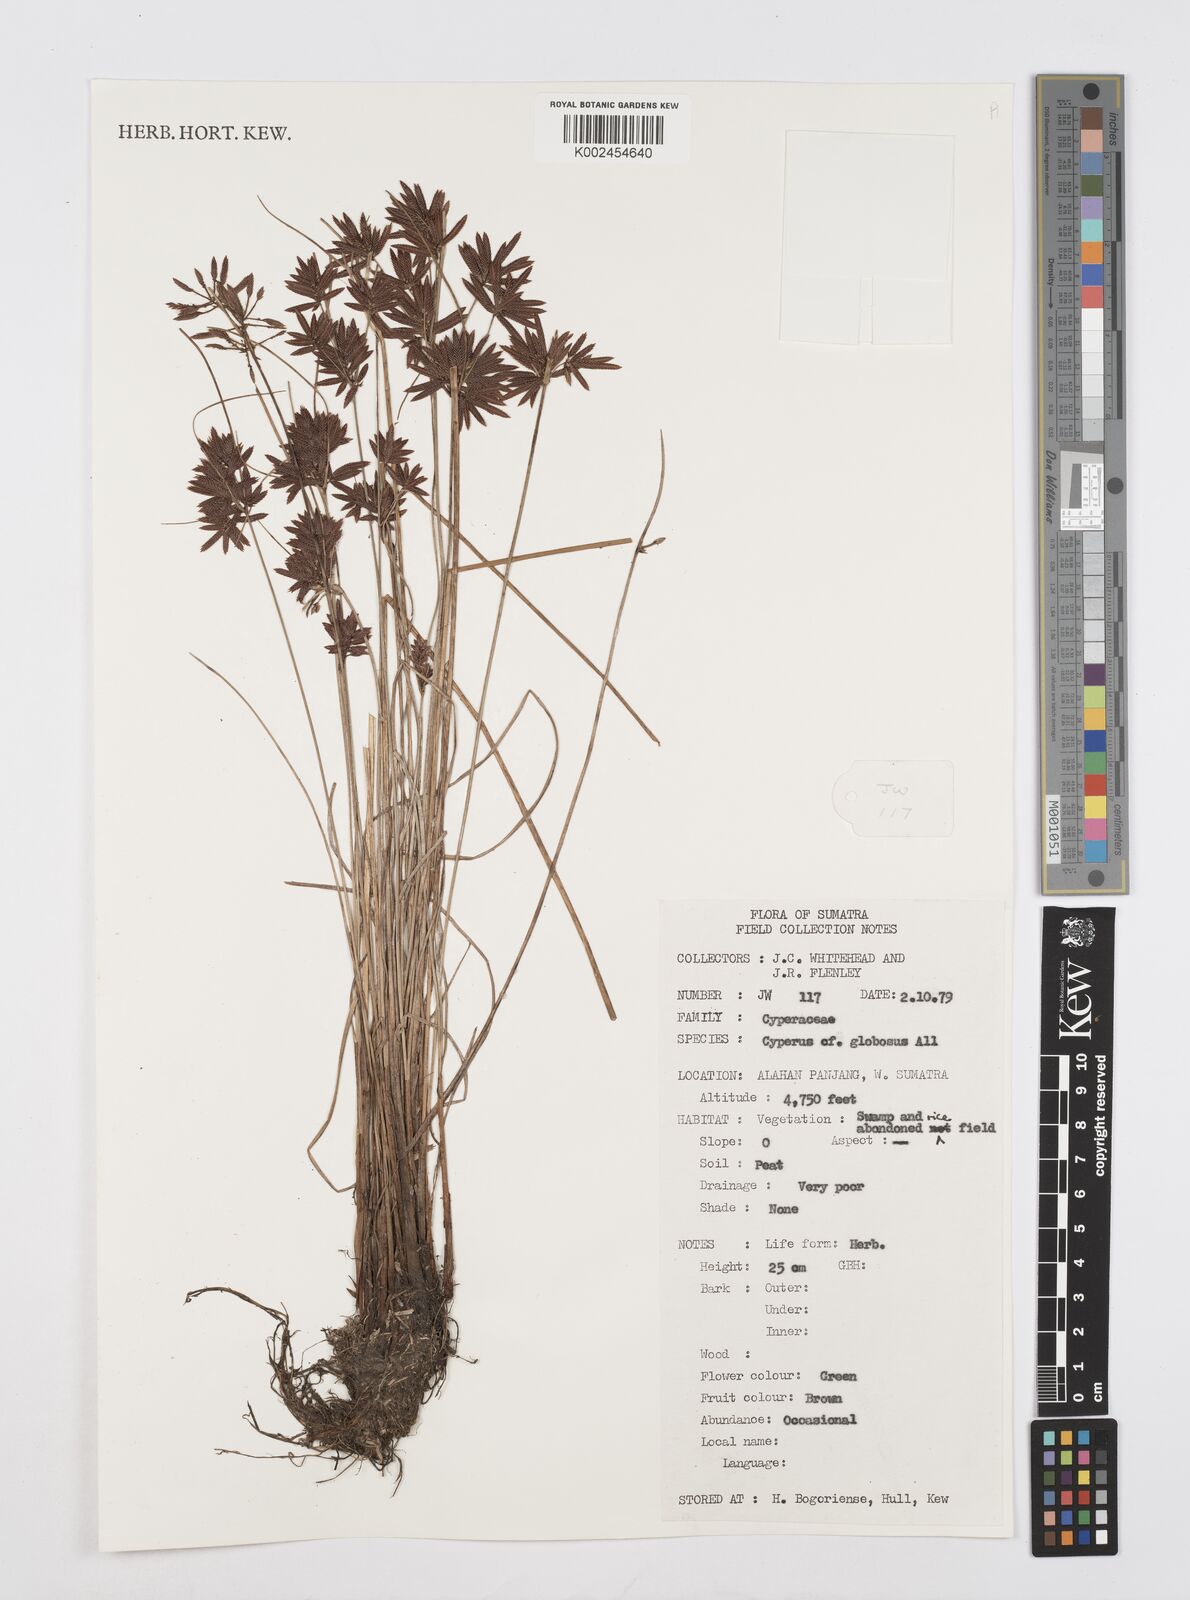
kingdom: Plantae
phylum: Tracheophyta
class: Liliopsida
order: Poales
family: Cyperaceae
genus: Cyperus
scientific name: Cyperus flavidus
